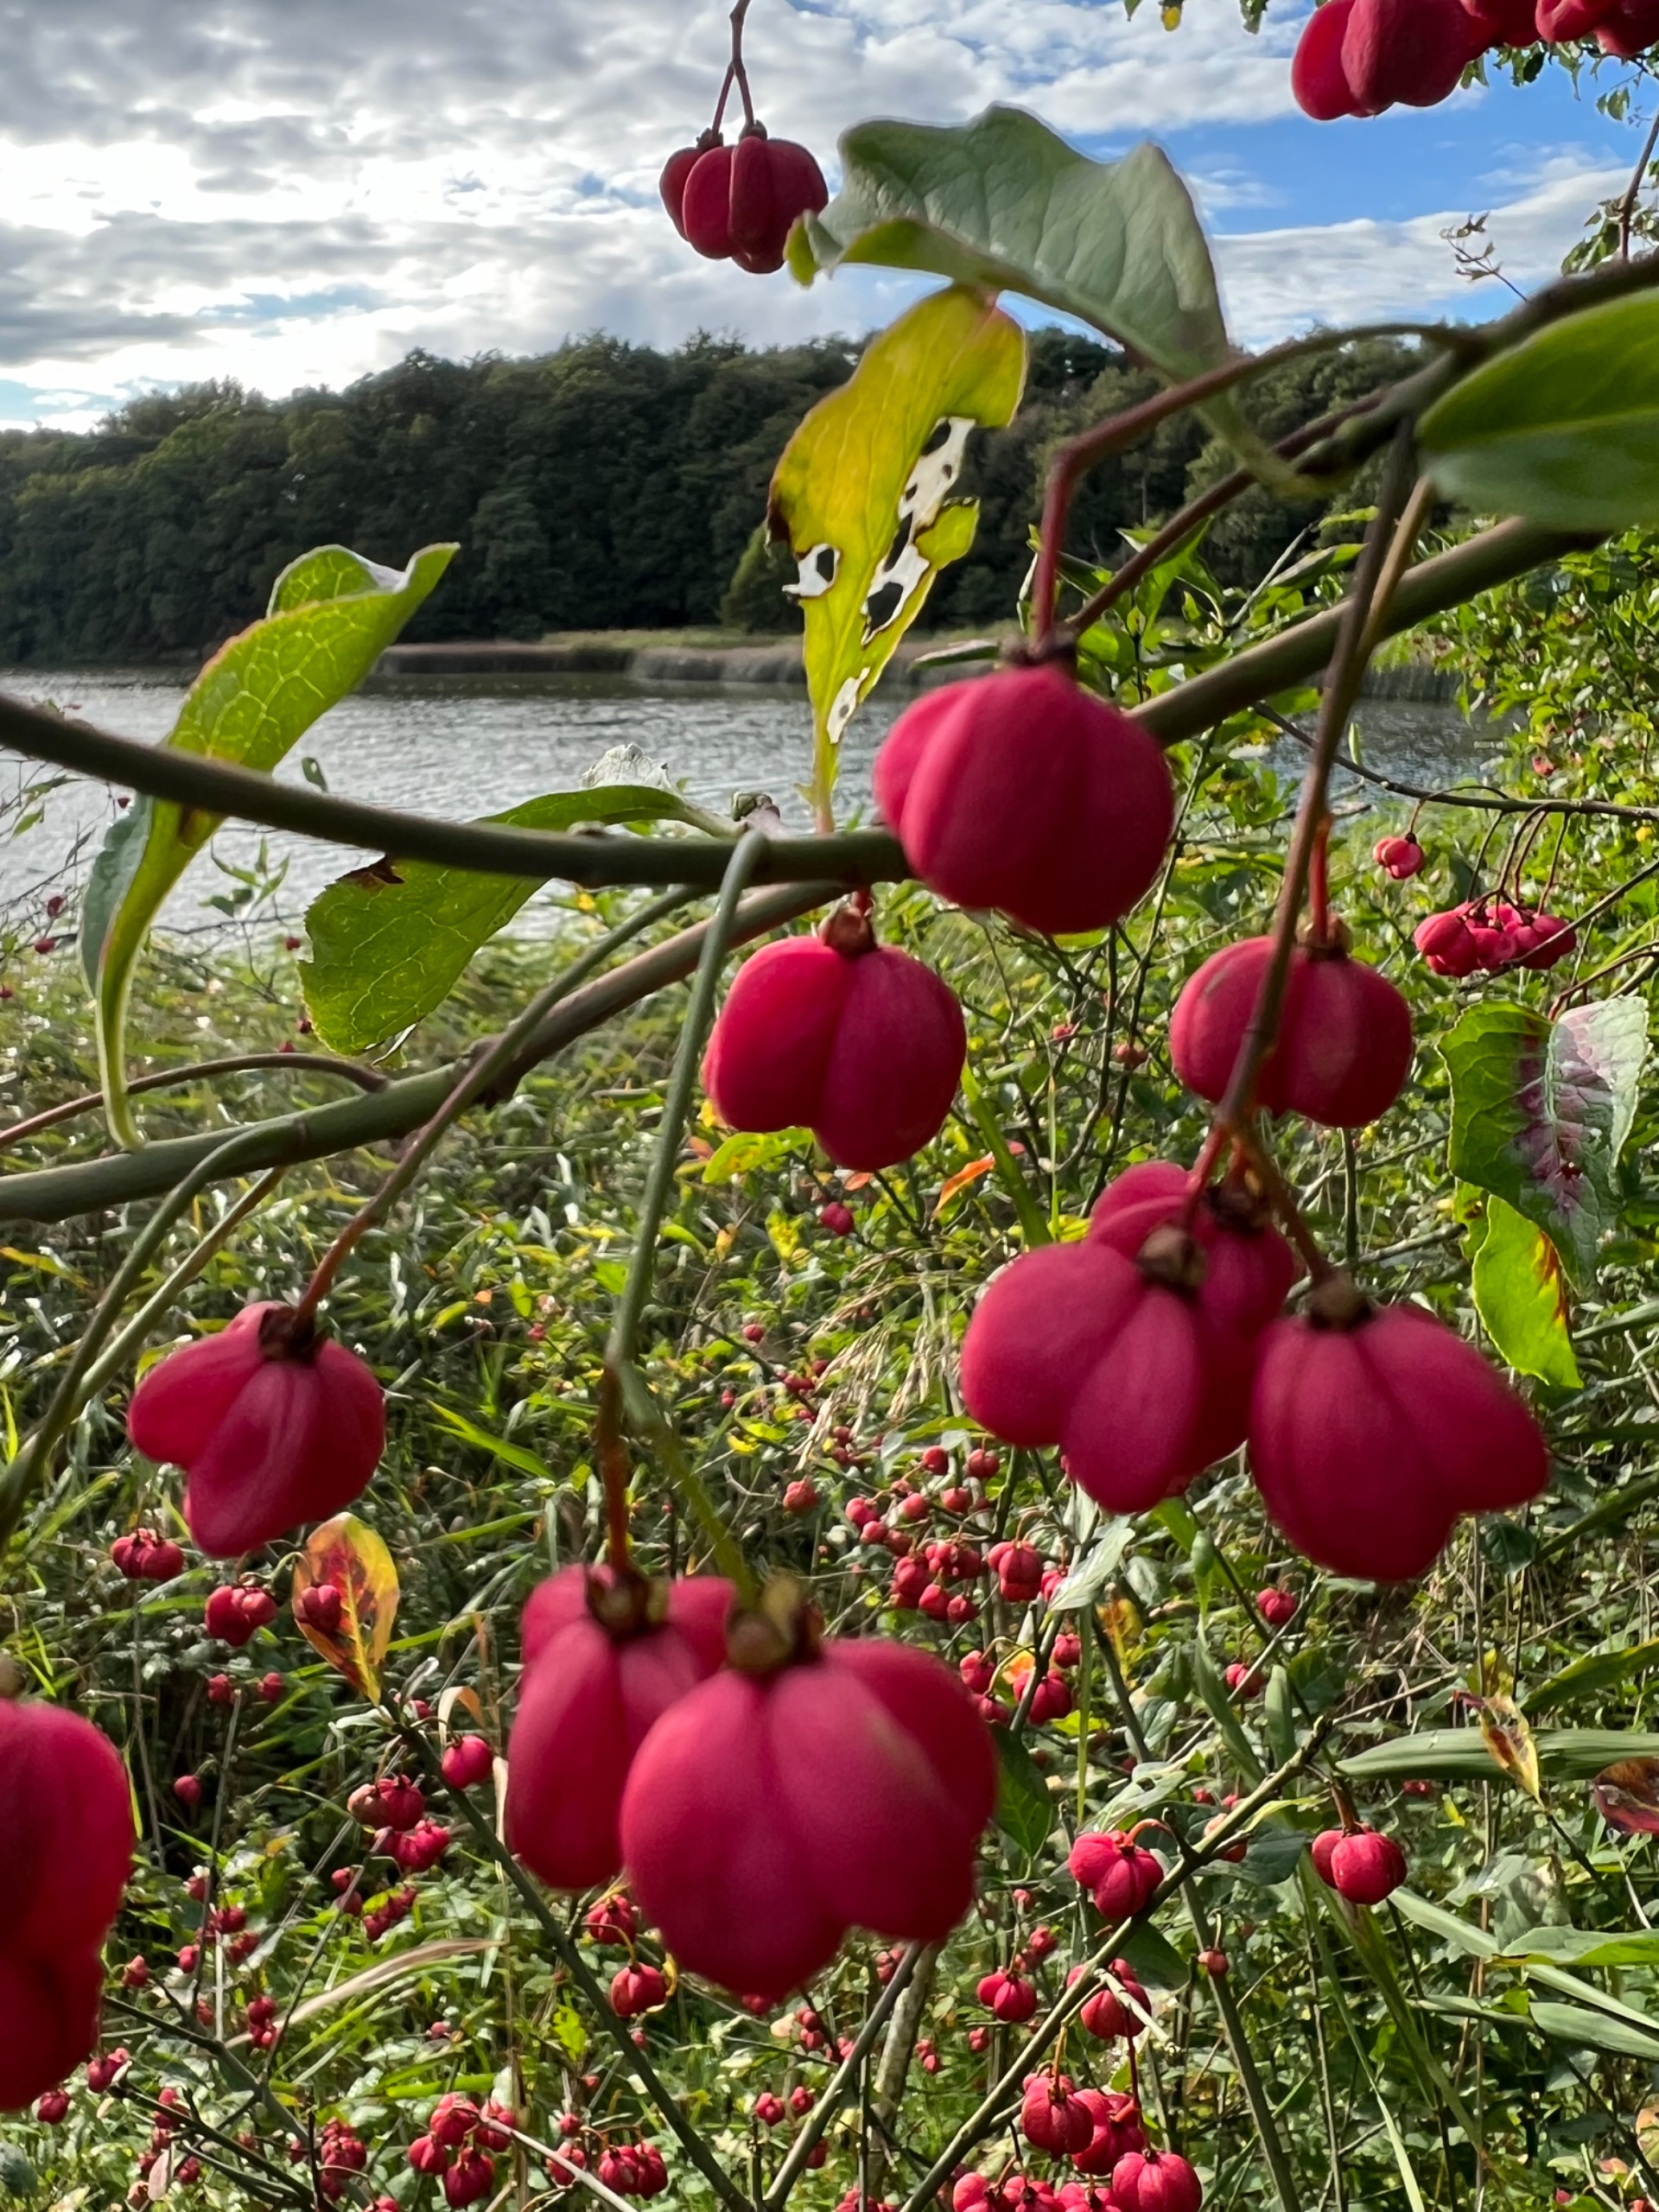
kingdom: Plantae
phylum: Tracheophyta
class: Magnoliopsida
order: Celastrales
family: Celastraceae
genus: Euonymus
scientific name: Euonymus europaeus
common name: Benved
